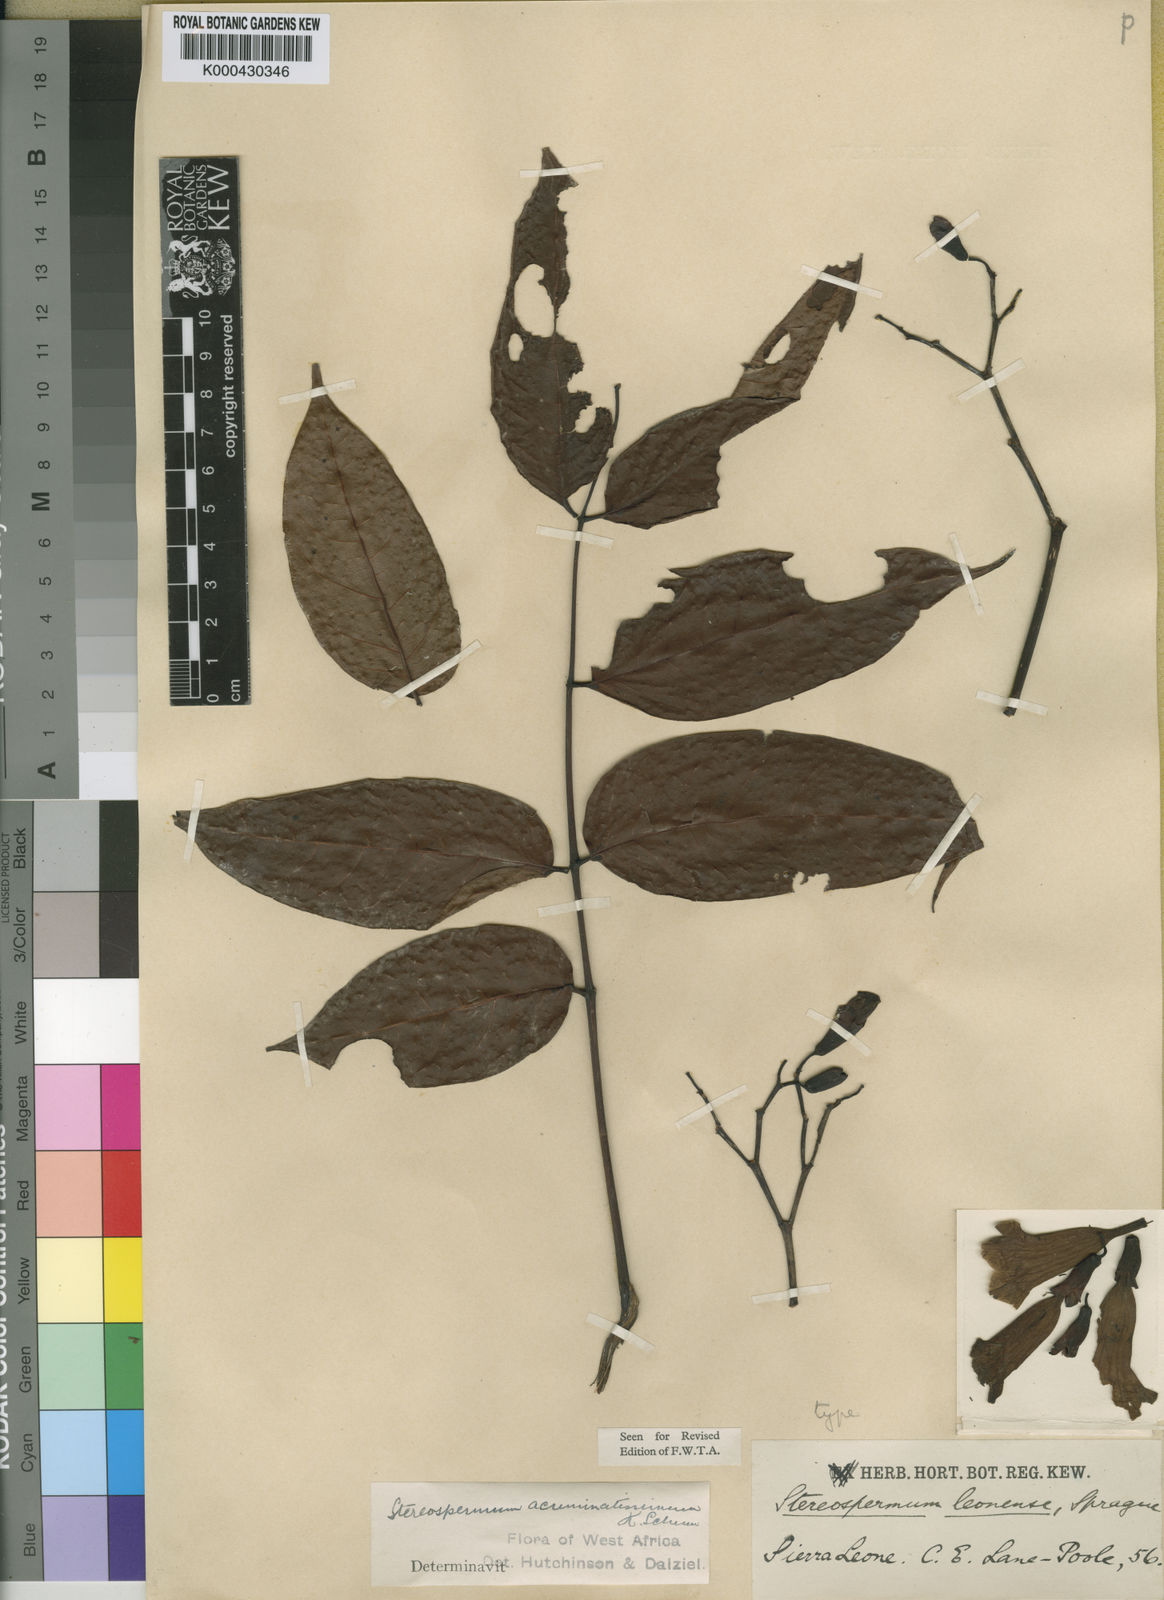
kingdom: Plantae
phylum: Tracheophyta
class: Magnoliopsida
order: Lamiales
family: Bignoniaceae
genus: Stereospermum
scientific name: Stereospermum acuminatissimum
